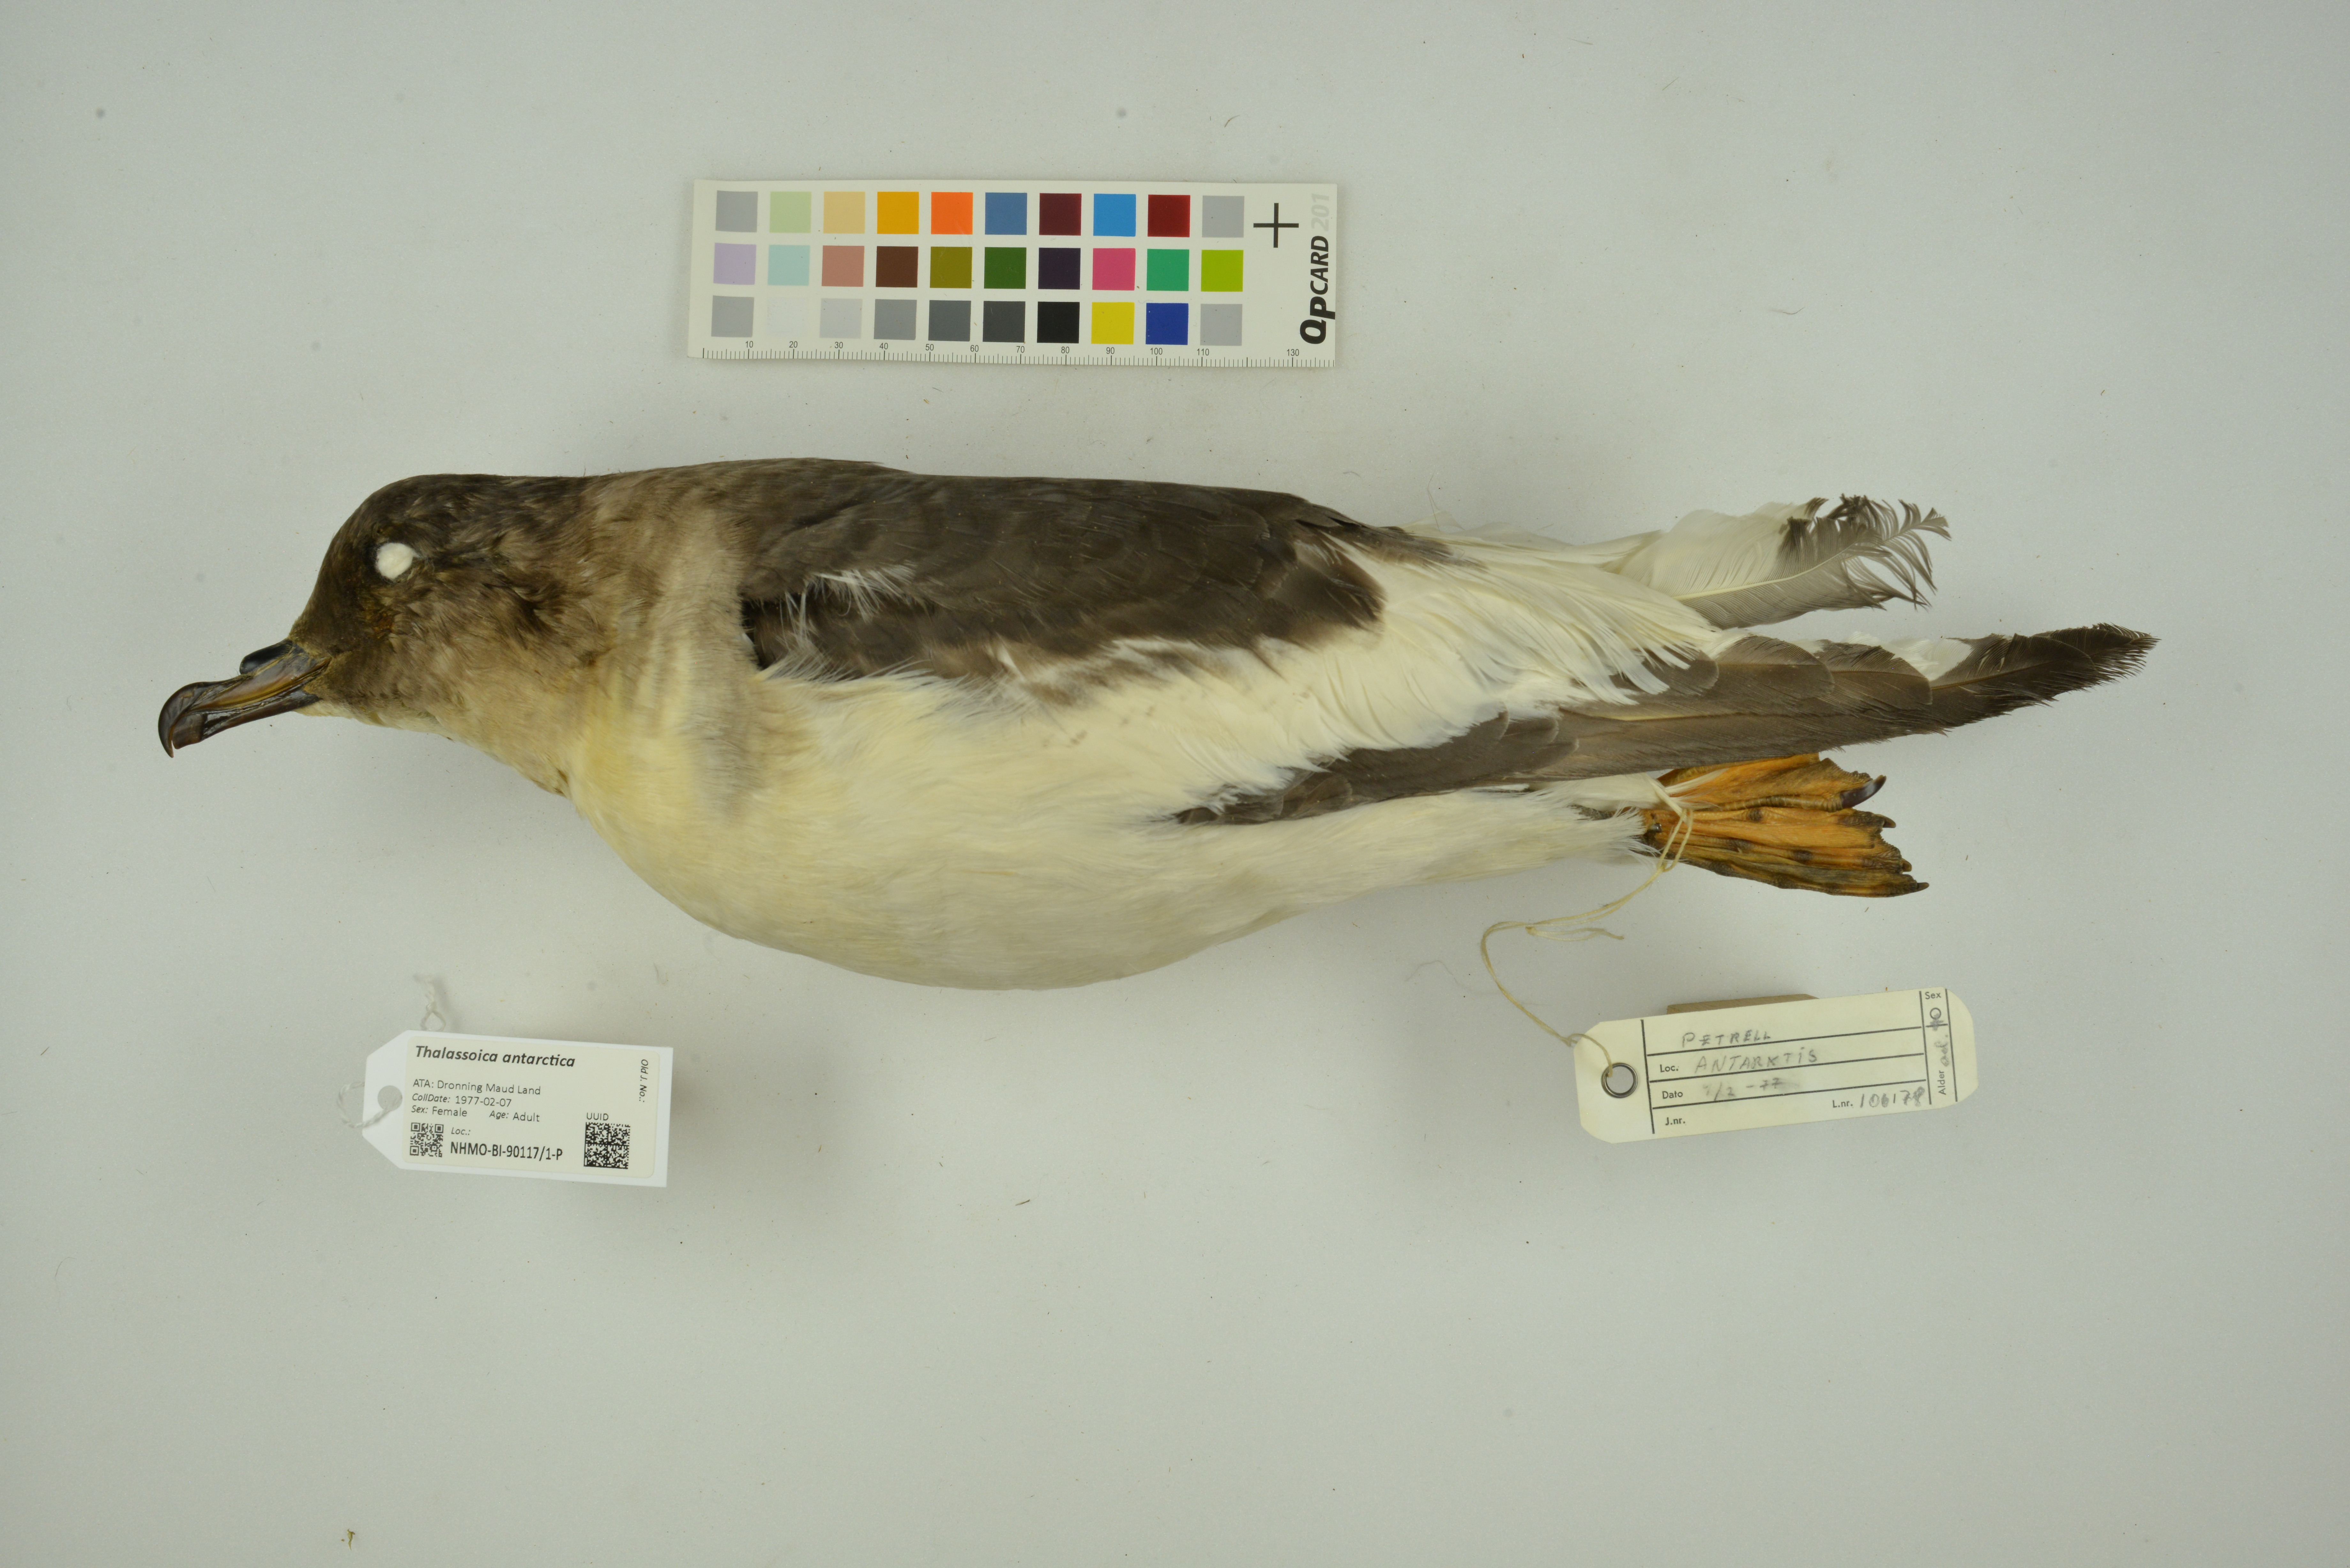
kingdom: Animalia
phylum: Chordata
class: Aves
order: Procellariiformes
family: Procellariidae
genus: Thalassoica
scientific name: Thalassoica antarctica
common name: Antarctic petrel
